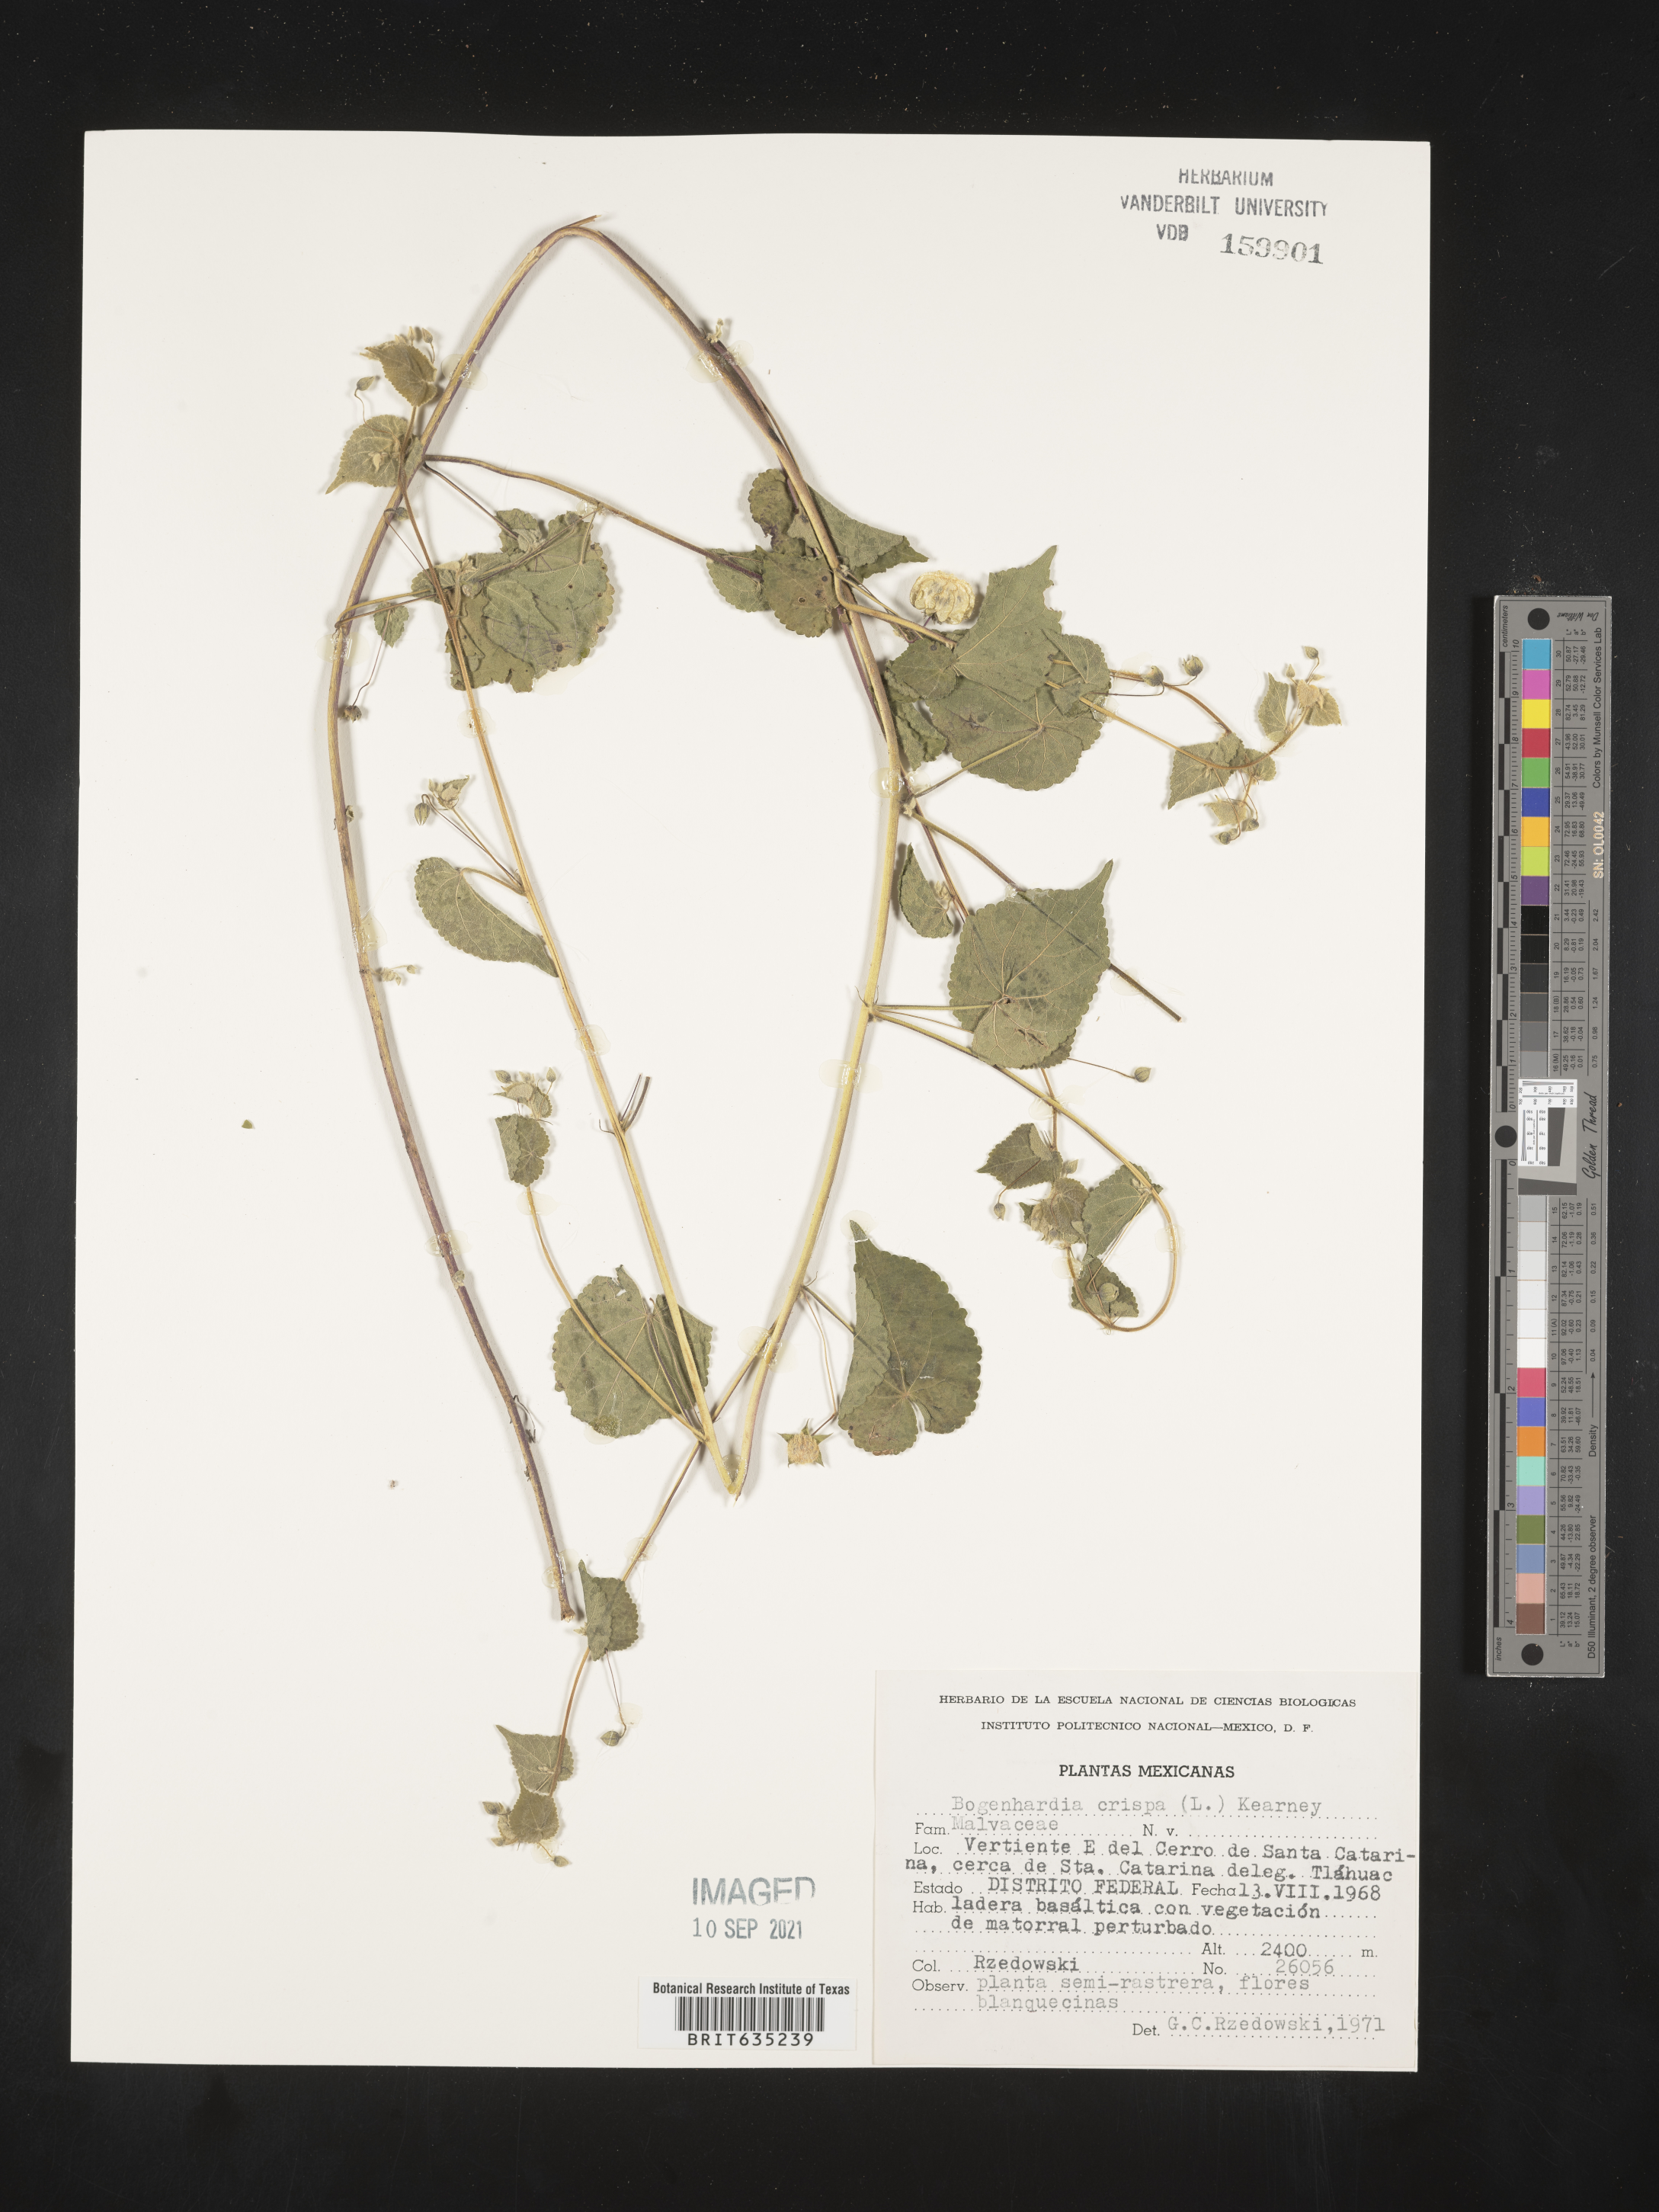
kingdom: Plantae
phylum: Tracheophyta
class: Magnoliopsida
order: Malvales
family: Malvaceae
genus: Herissantia
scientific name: Herissantia
